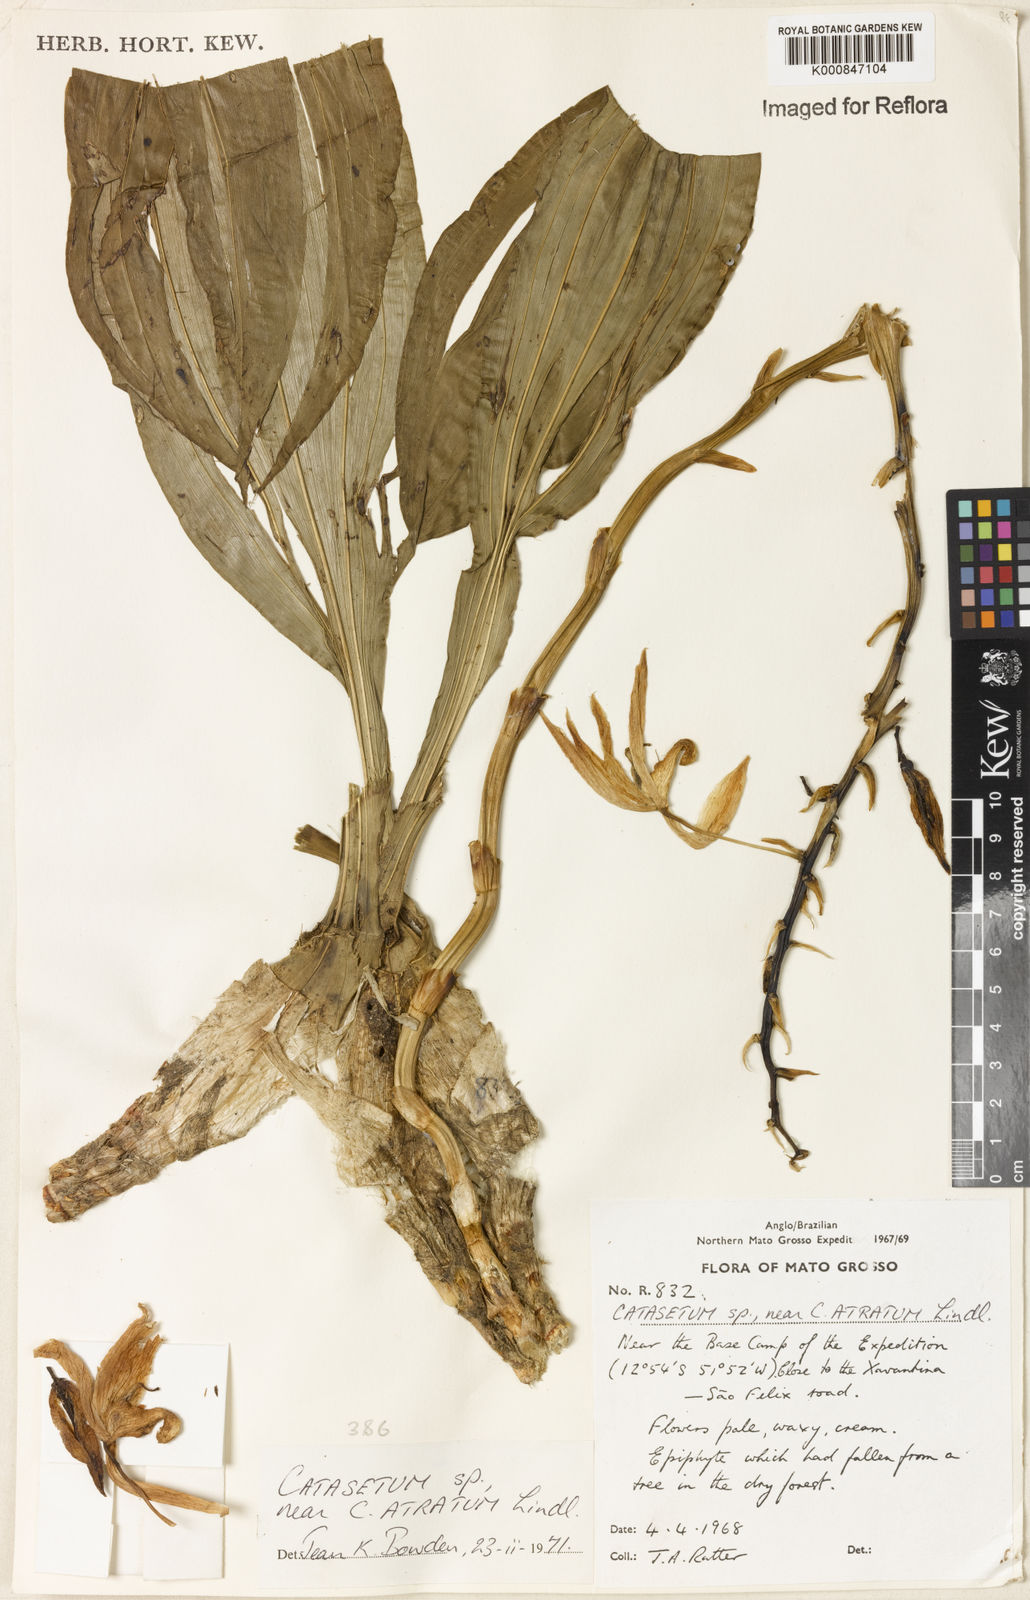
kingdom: Plantae
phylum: Tracheophyta
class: Liliopsida
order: Asparagales
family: Orchidaceae
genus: Catasetum
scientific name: Catasetum atratum
